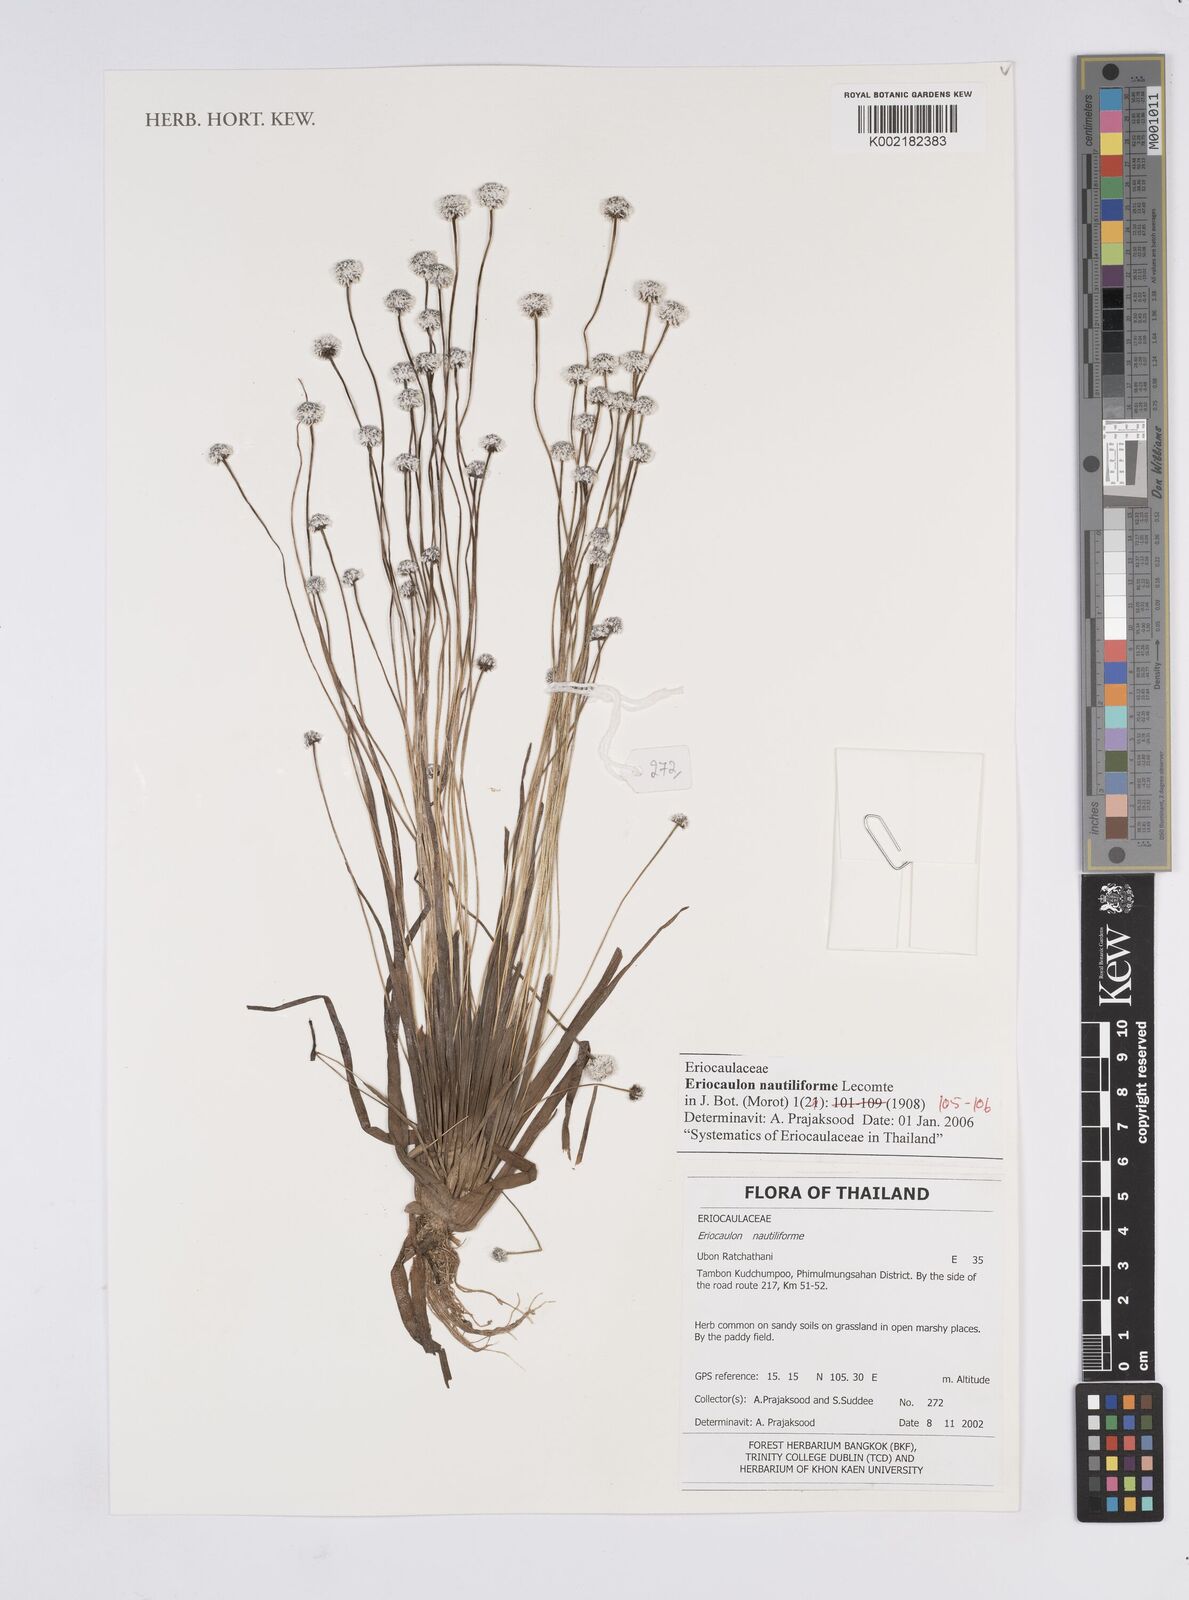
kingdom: Plantae
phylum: Tracheophyta
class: Liliopsida
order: Poales
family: Eriocaulaceae
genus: Eriocaulon
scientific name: Eriocaulon nautiliforme
